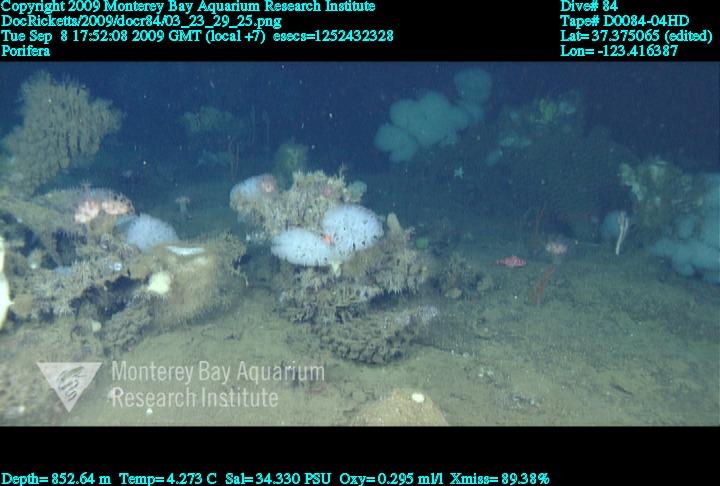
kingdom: Animalia
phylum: Porifera
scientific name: Porifera
